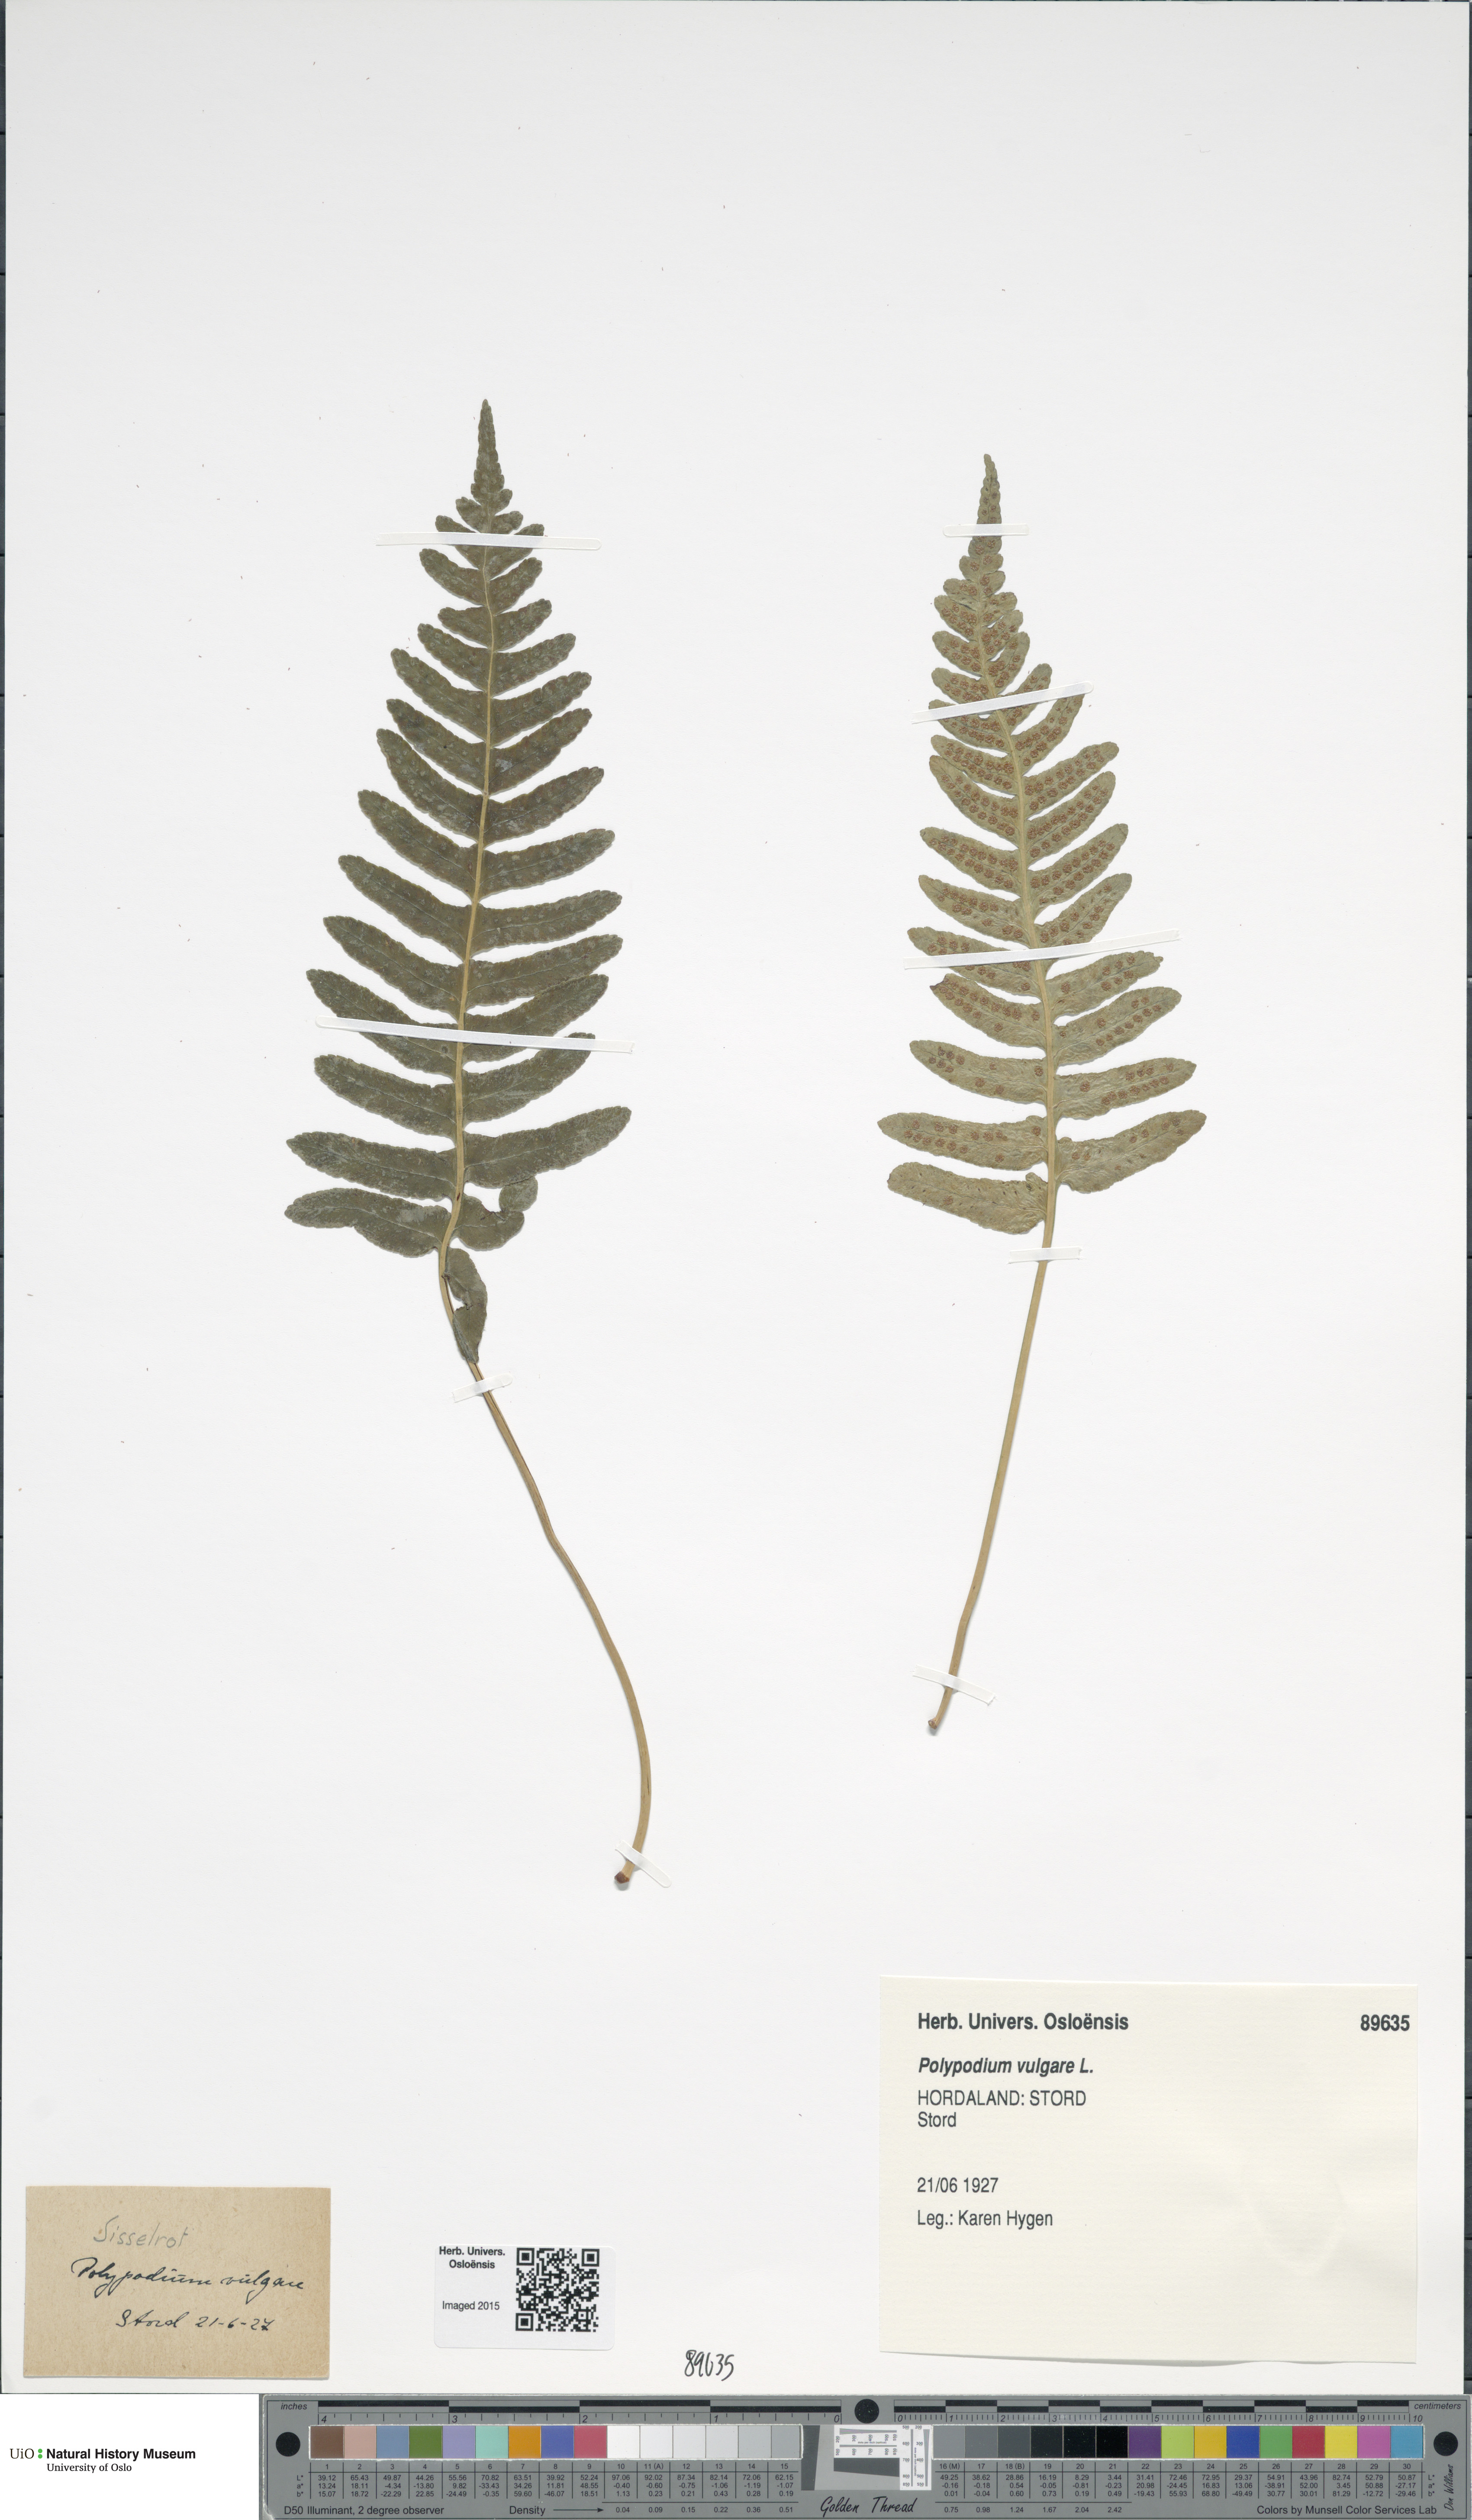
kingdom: Plantae
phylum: Tracheophyta
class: Polypodiopsida
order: Polypodiales
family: Polypodiaceae
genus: Polypodium
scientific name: Polypodium vulgare
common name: Common polypody
